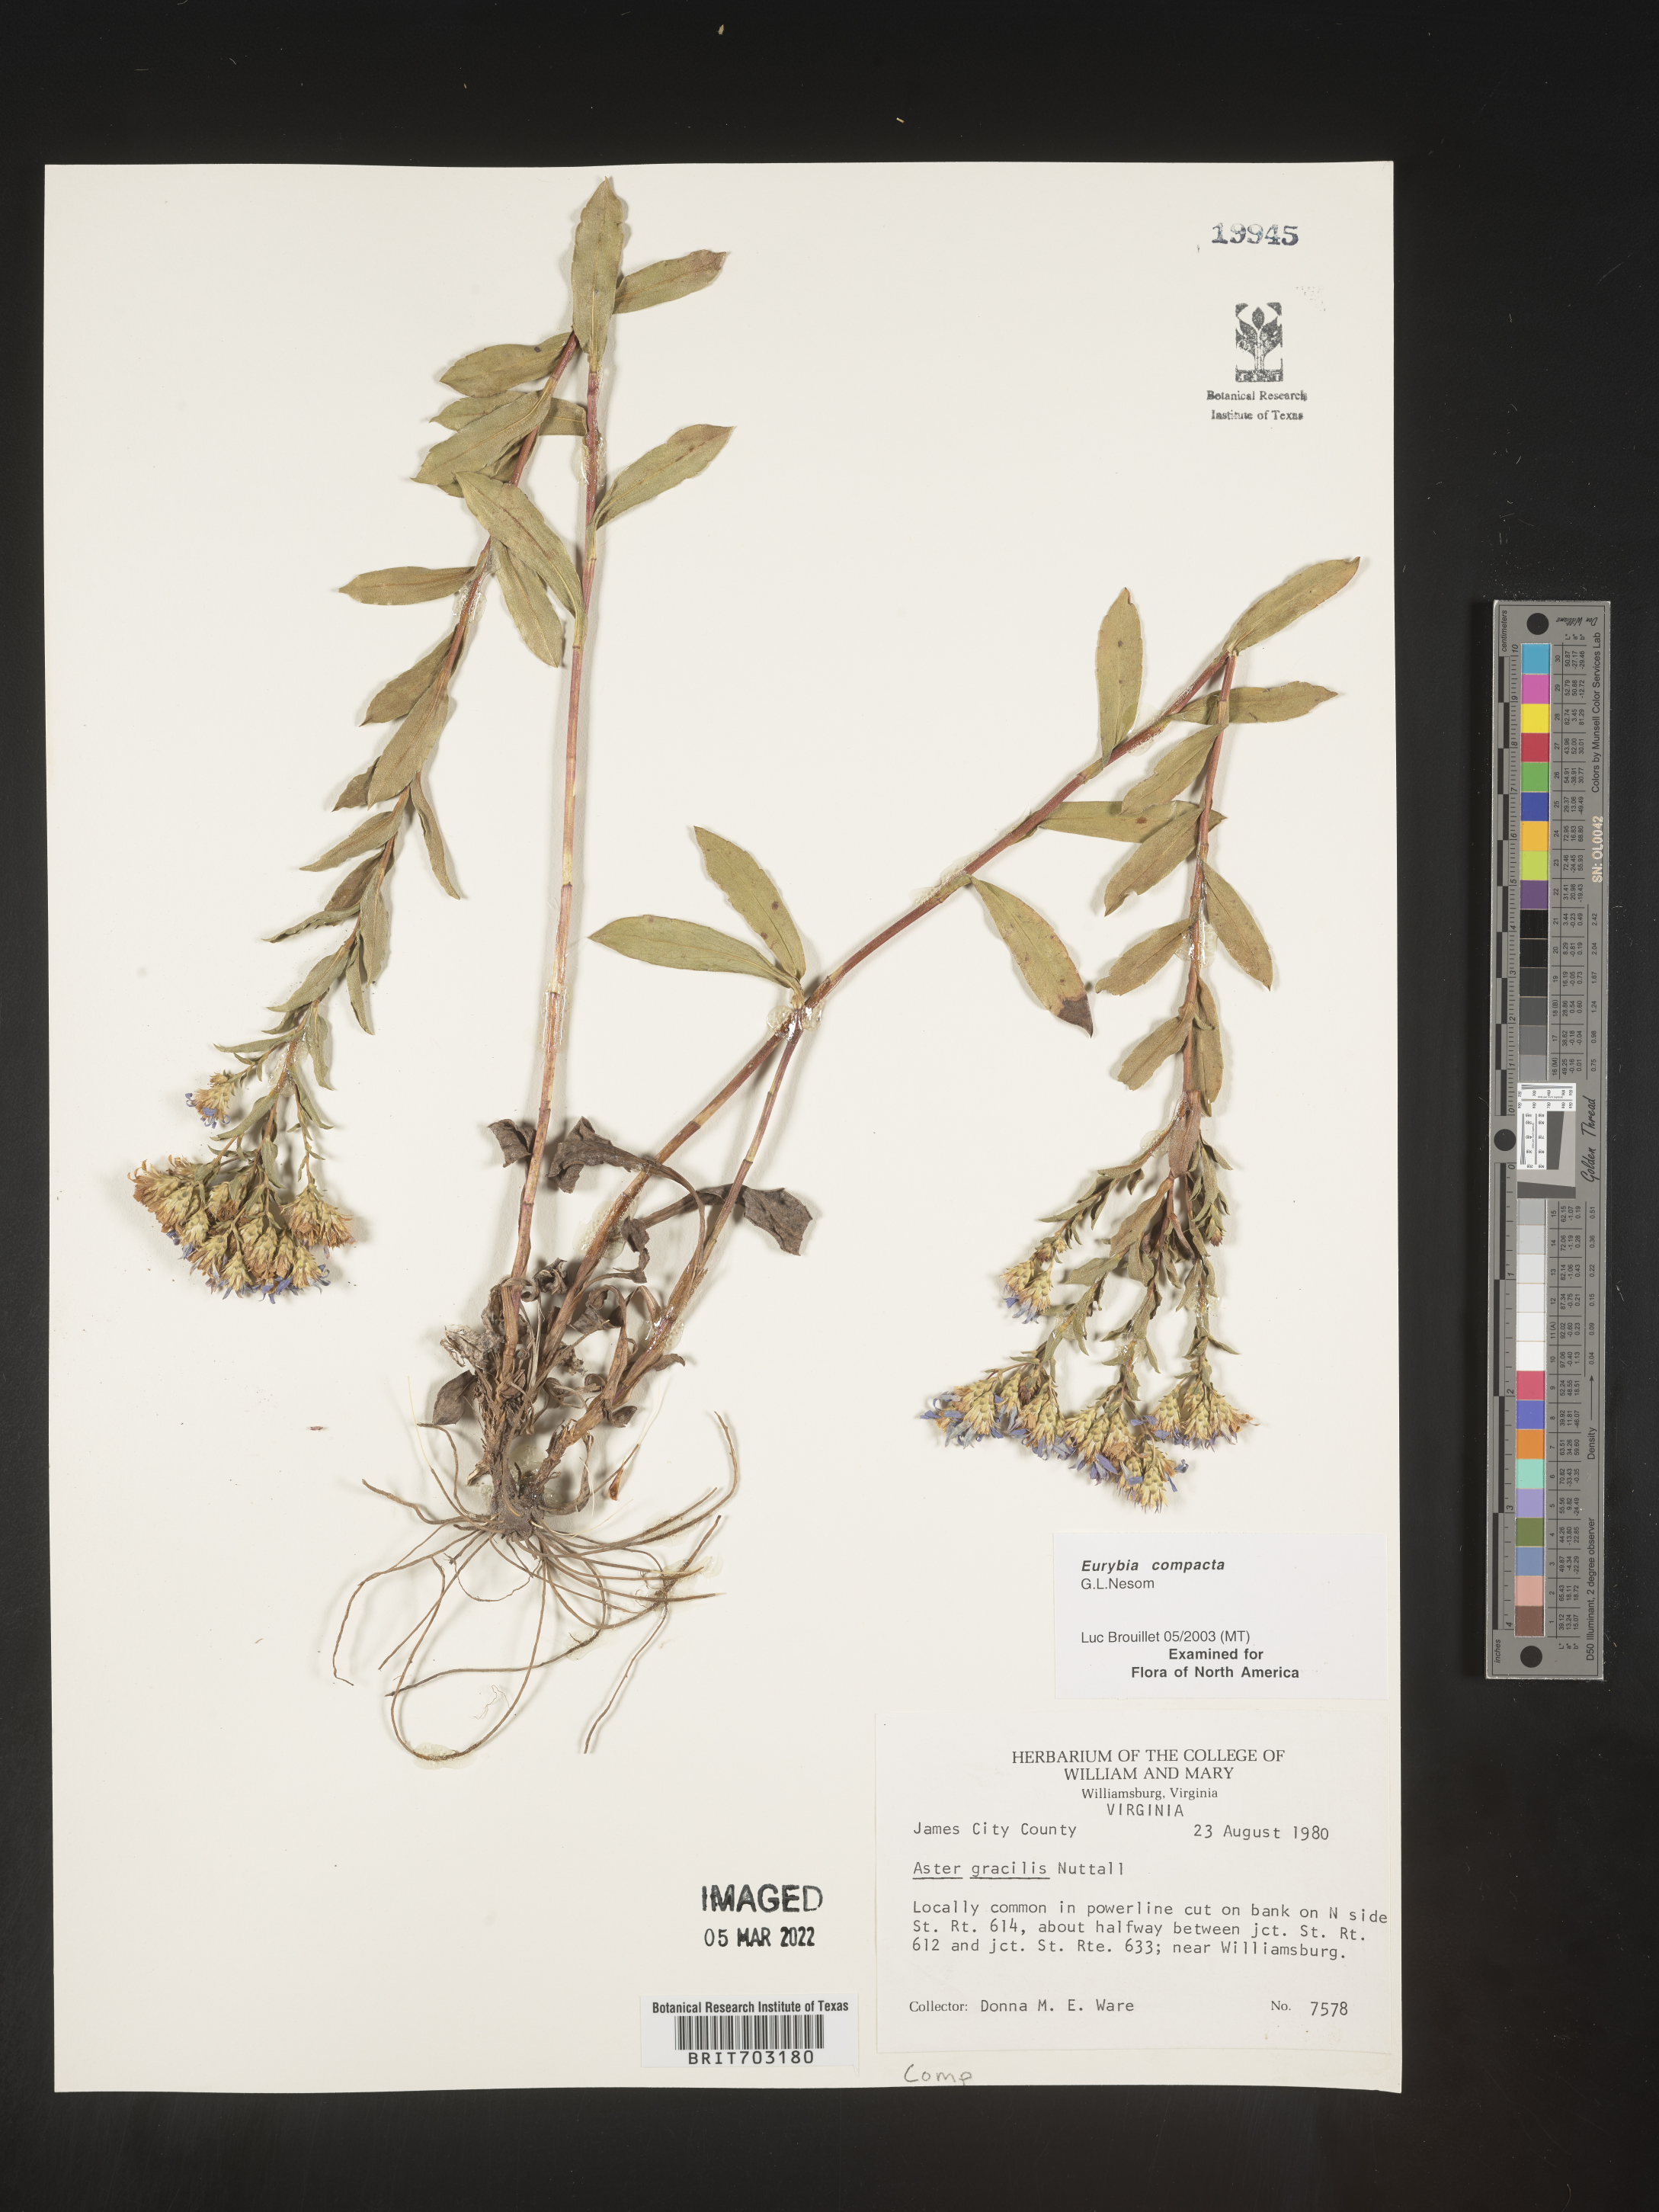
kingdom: Plantae
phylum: Tracheophyta
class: Magnoliopsida
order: Asterales
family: Asteraceae
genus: Eurybia
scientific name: Eurybia compacta
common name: Slender aster
